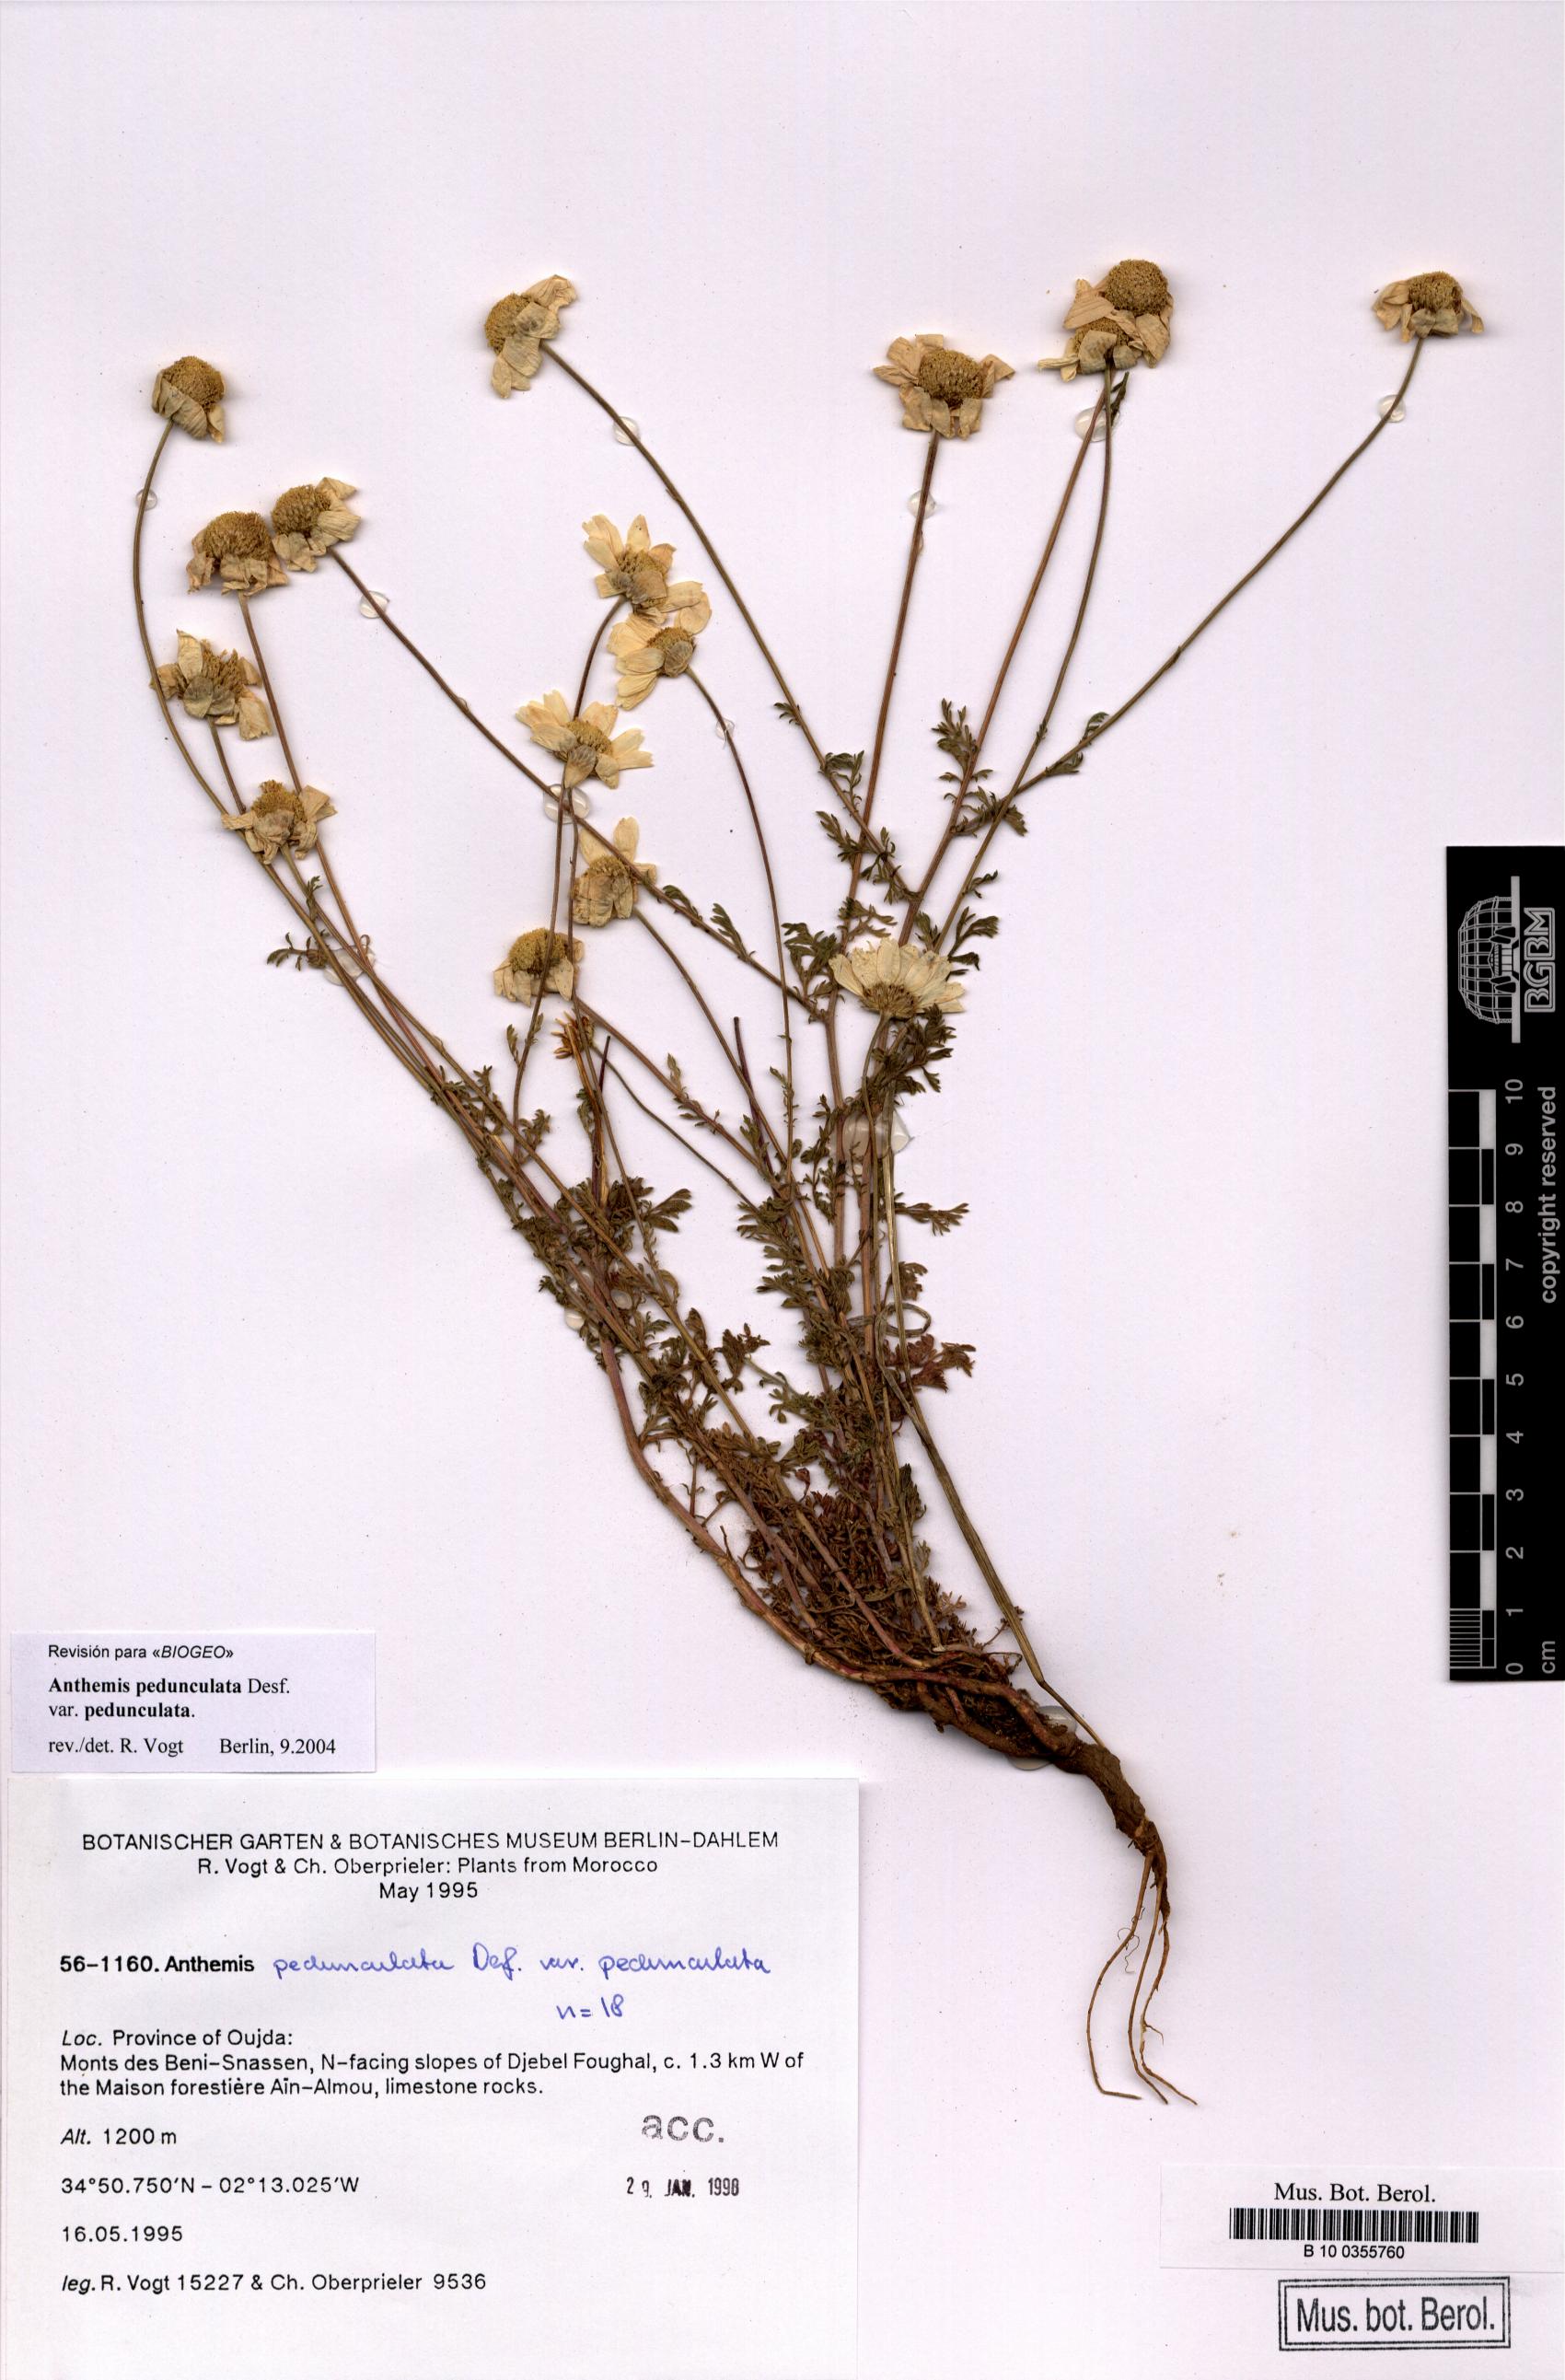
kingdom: Plantae
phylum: Tracheophyta
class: Magnoliopsida
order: Asterales
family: Asteraceae
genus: Anthemis
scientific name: Anthemis pedunculata
